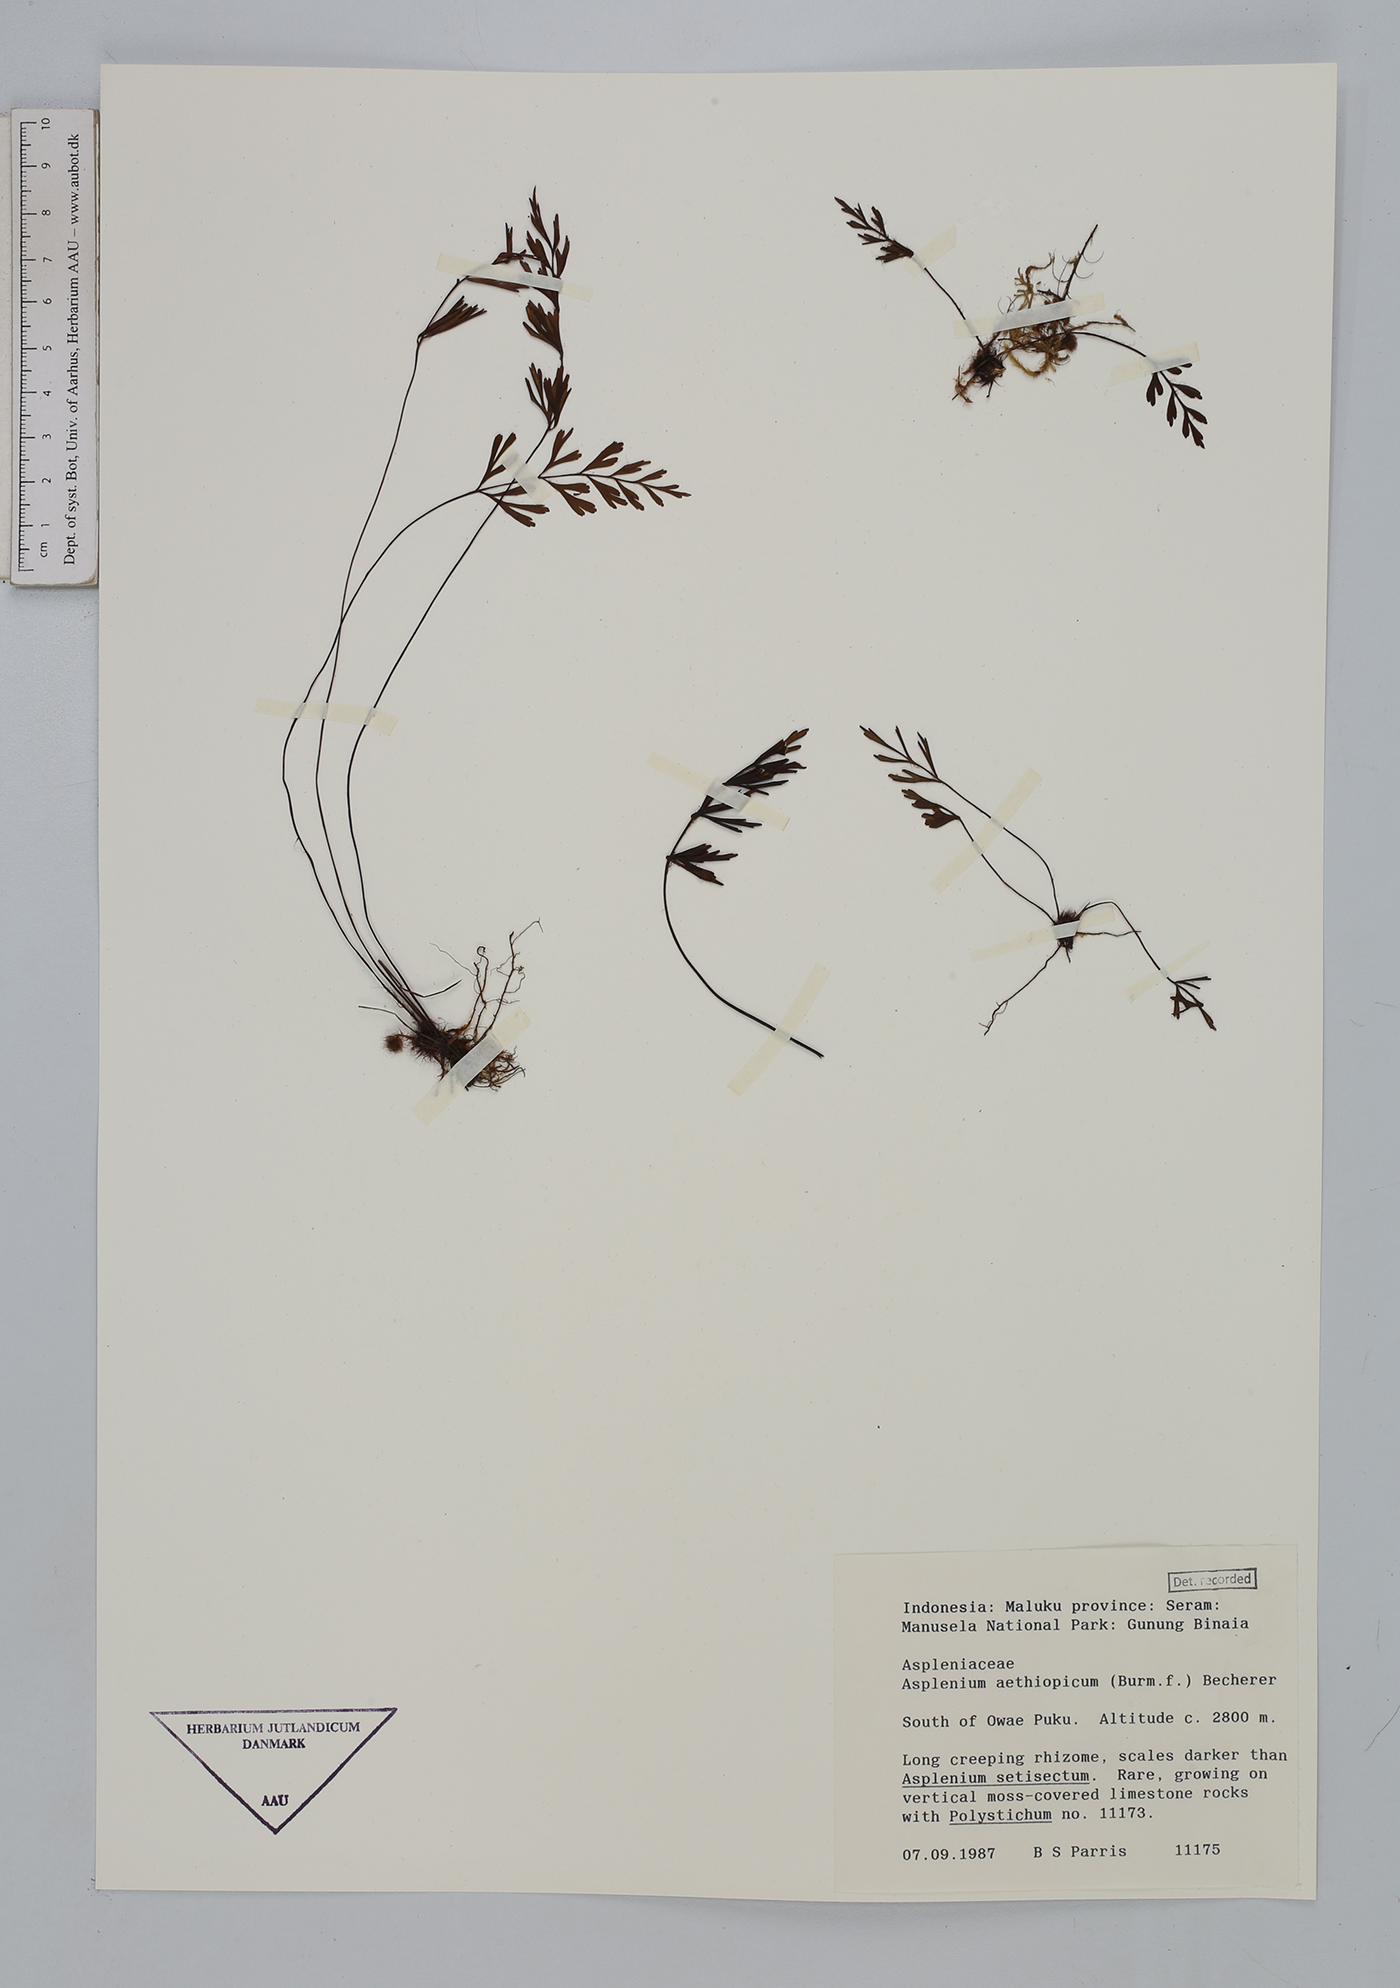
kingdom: Plantae
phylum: Tracheophyta
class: Polypodiopsida
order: Polypodiales
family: Aspleniaceae
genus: Asplenium
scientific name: Asplenium aethiopicum
